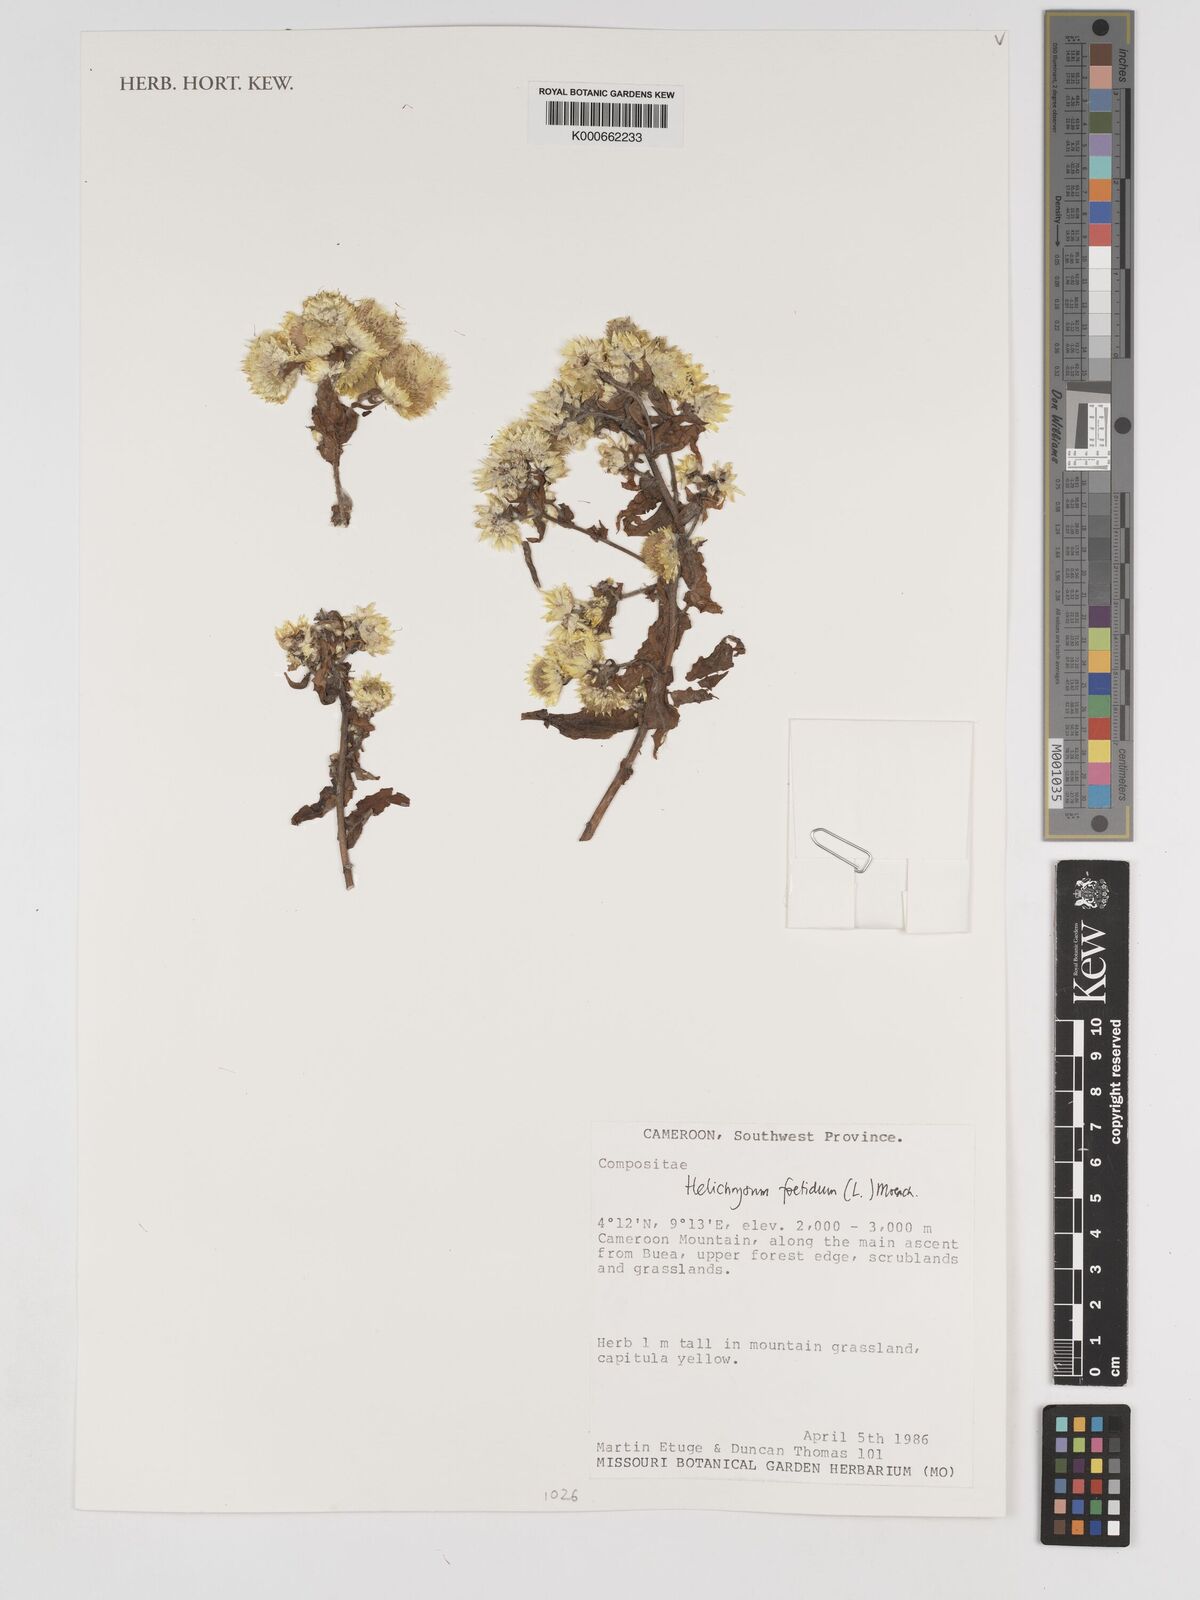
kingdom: Plantae
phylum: Tracheophyta
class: Magnoliopsida
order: Asterales
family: Asteraceae
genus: Helichrysum
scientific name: Helichrysum foetidum
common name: Stinking everlasting
